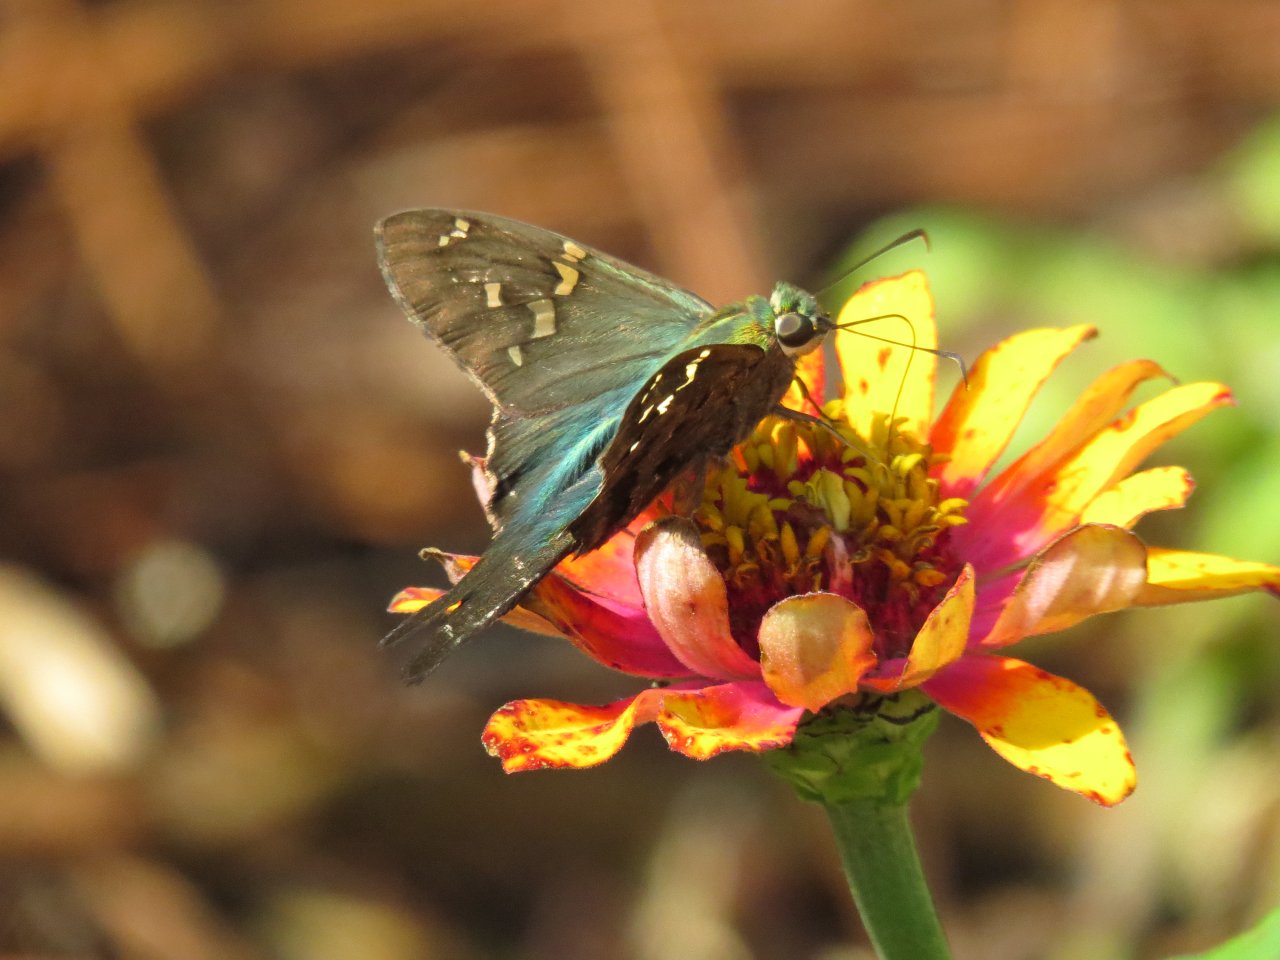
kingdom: Animalia
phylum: Arthropoda
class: Insecta
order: Lepidoptera
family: Hesperiidae
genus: Urbanus
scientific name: Urbanus proteus
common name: Long-tailed Skipper
